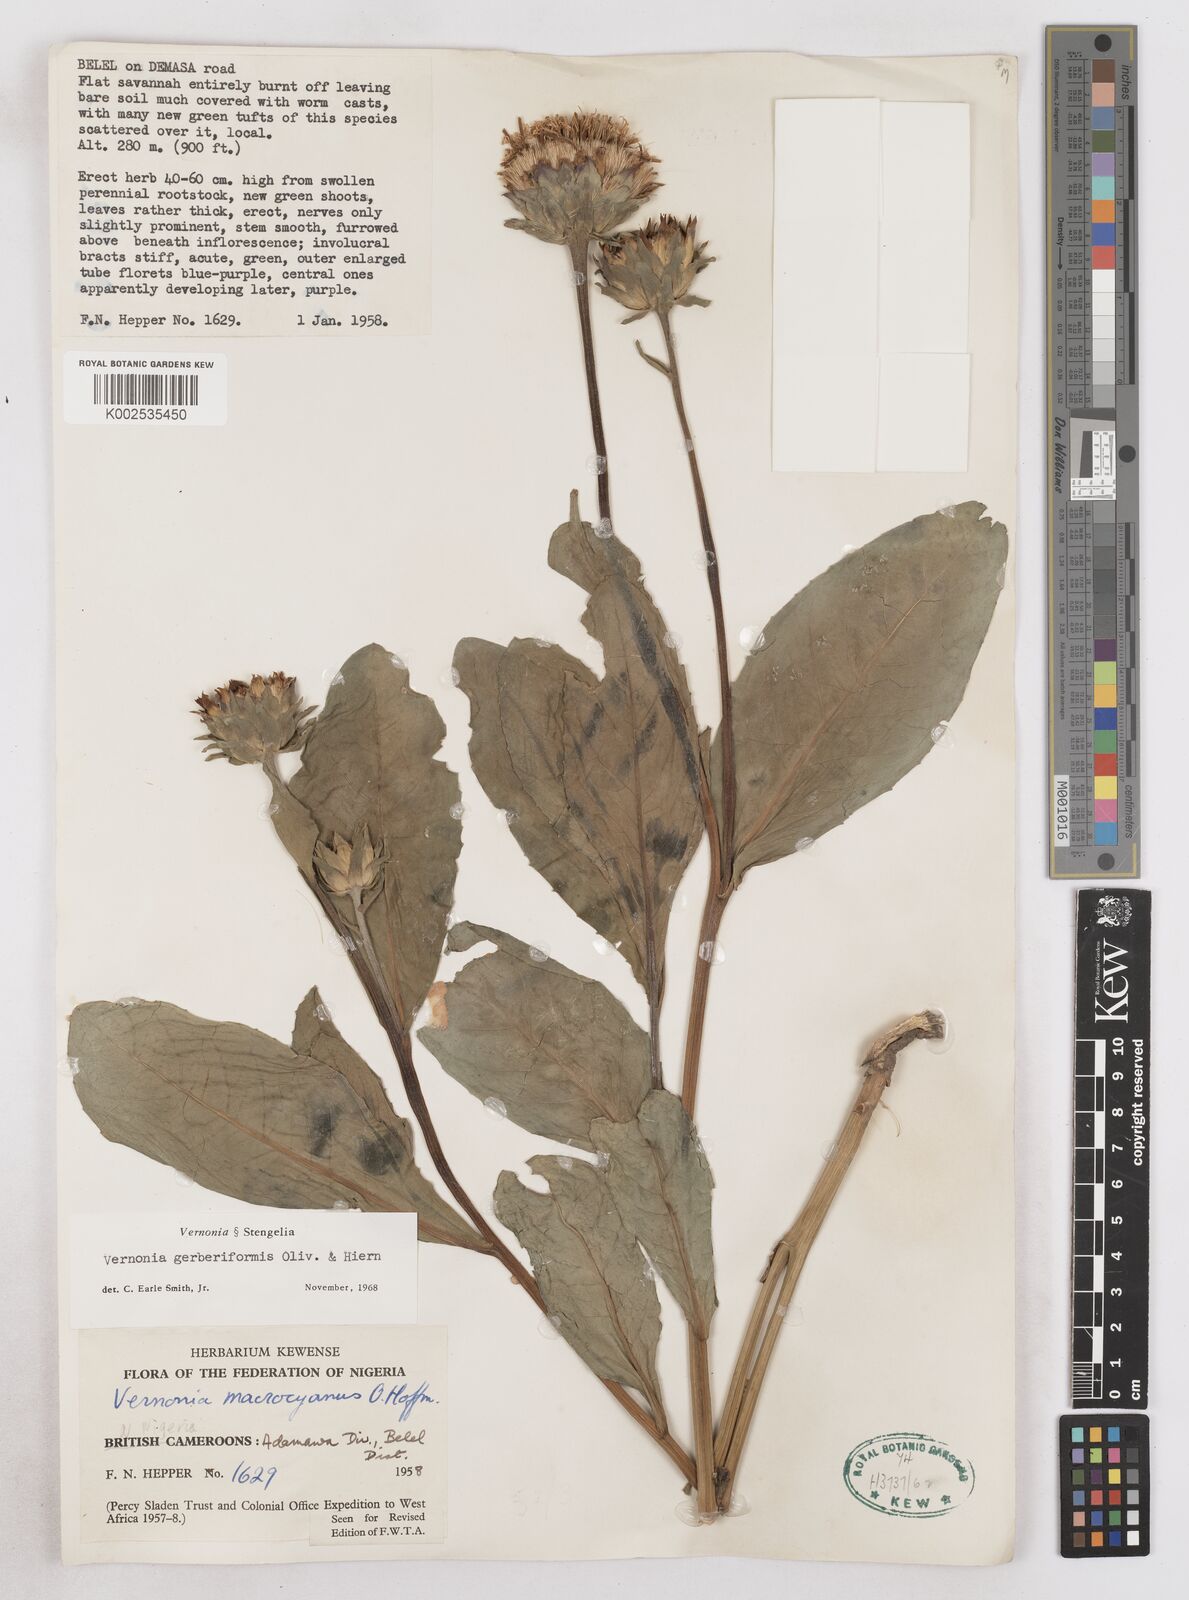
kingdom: Plantae
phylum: Tracheophyta
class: Magnoliopsida
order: Asterales
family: Asteraceae
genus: Linzia
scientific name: Linzia gerberiformis
